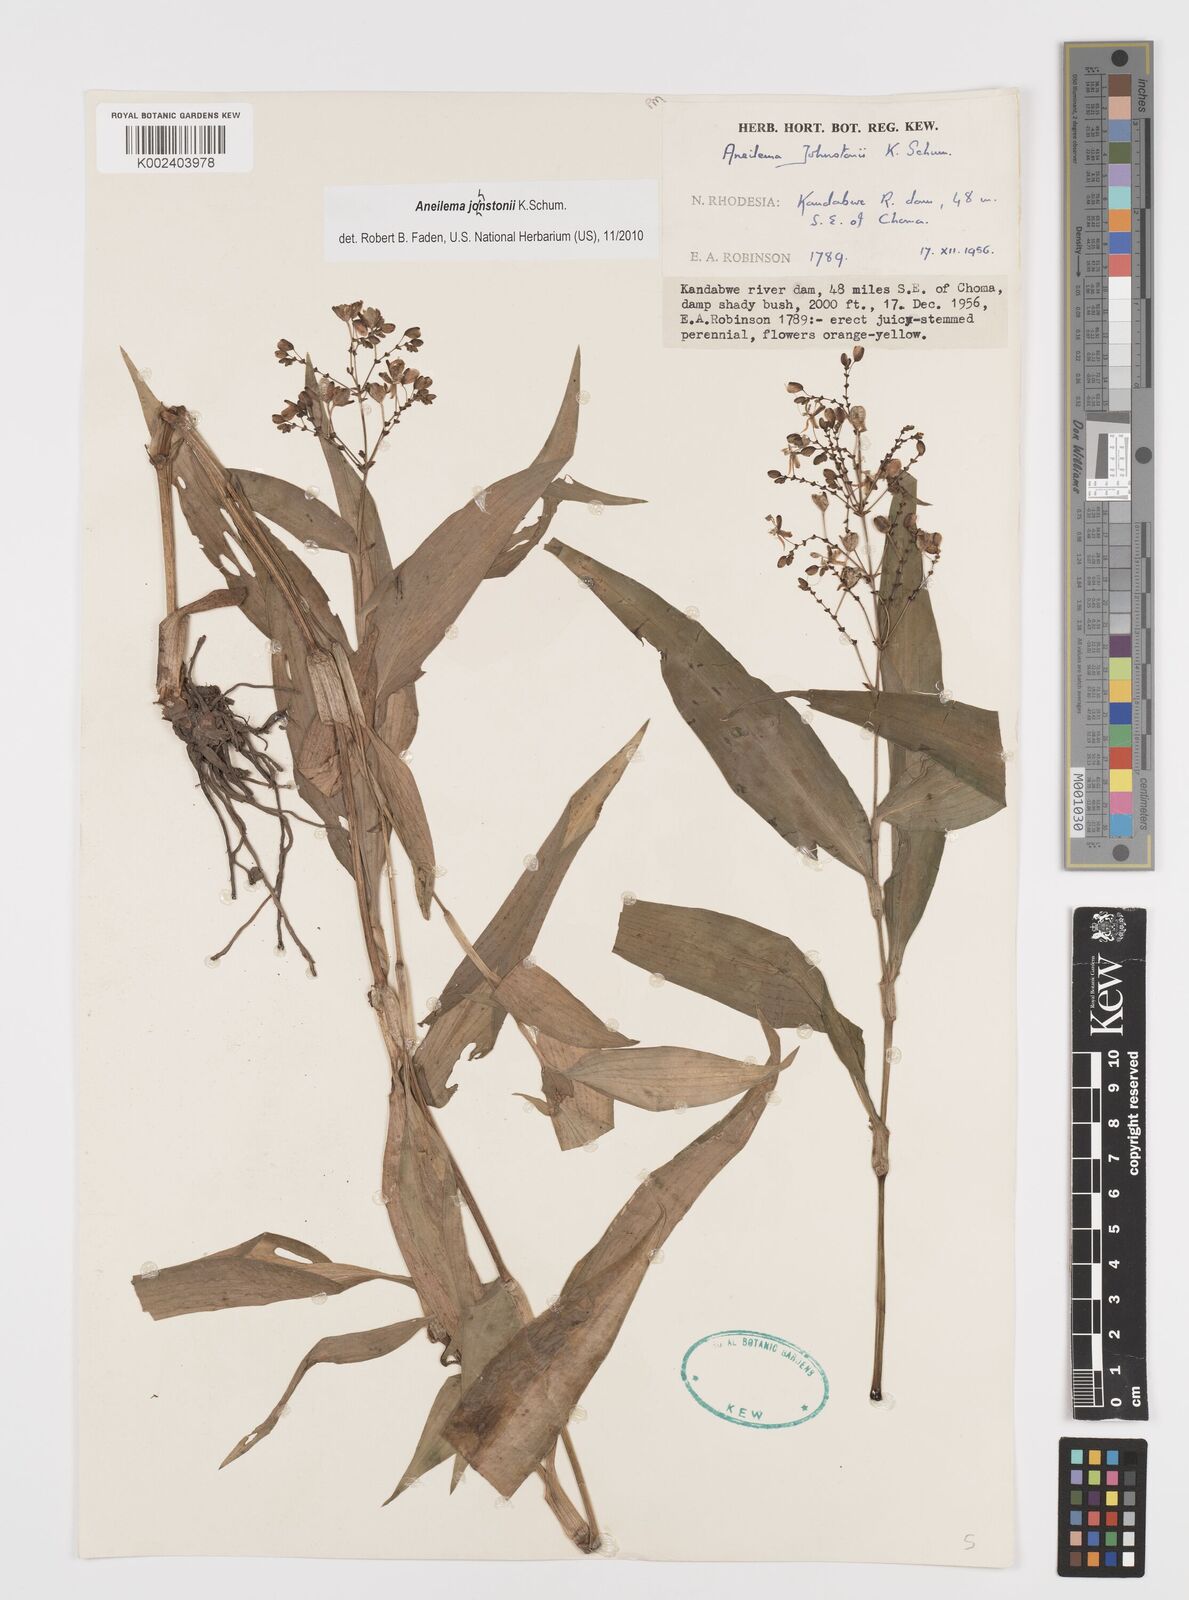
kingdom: Plantae
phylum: Tracheophyta
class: Liliopsida
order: Commelinales
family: Commelinaceae
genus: Aneilema
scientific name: Aneilema johnstonii
